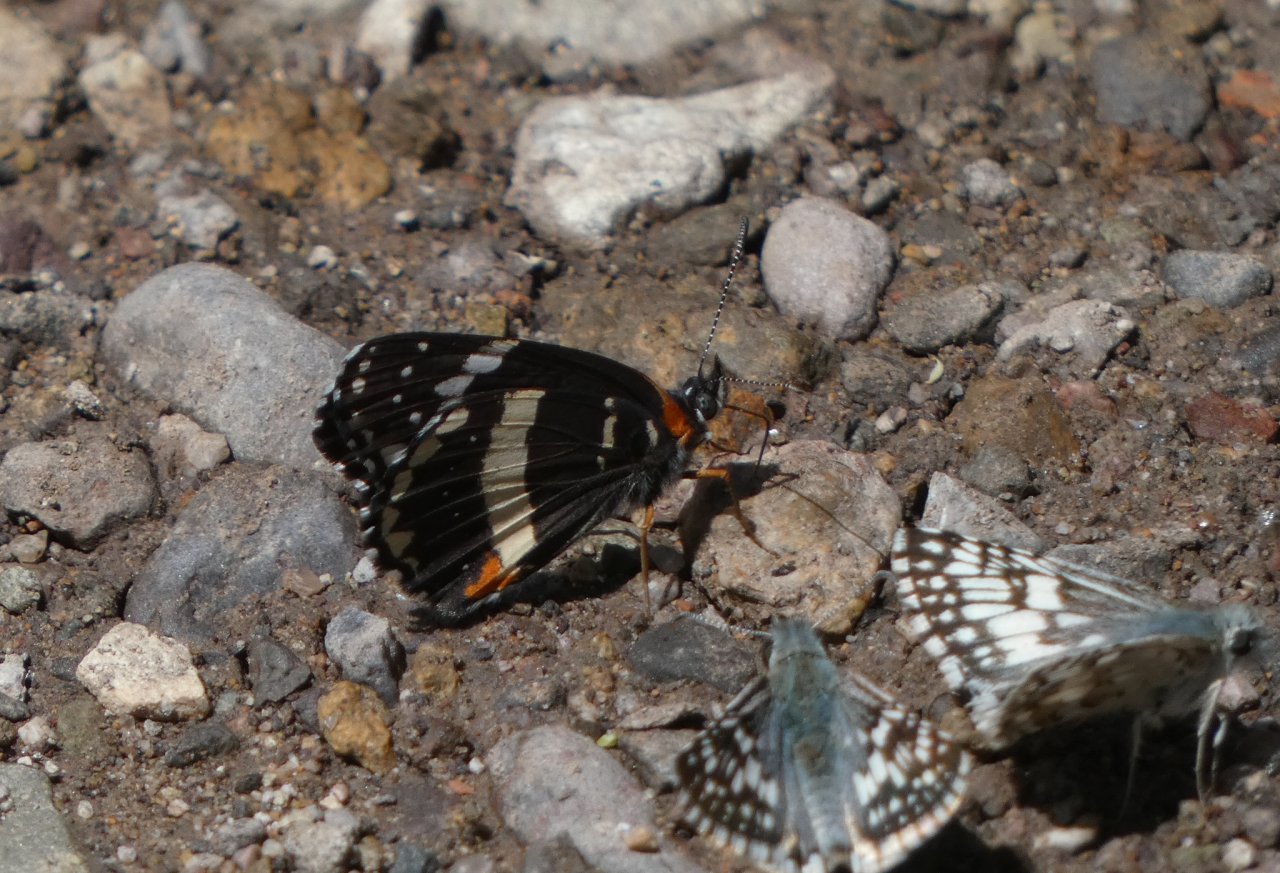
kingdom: Animalia
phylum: Arthropoda
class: Insecta
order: Lepidoptera
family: Nymphalidae
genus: Chlosyne
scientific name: Chlosyne lacinia
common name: Bordered Patch
